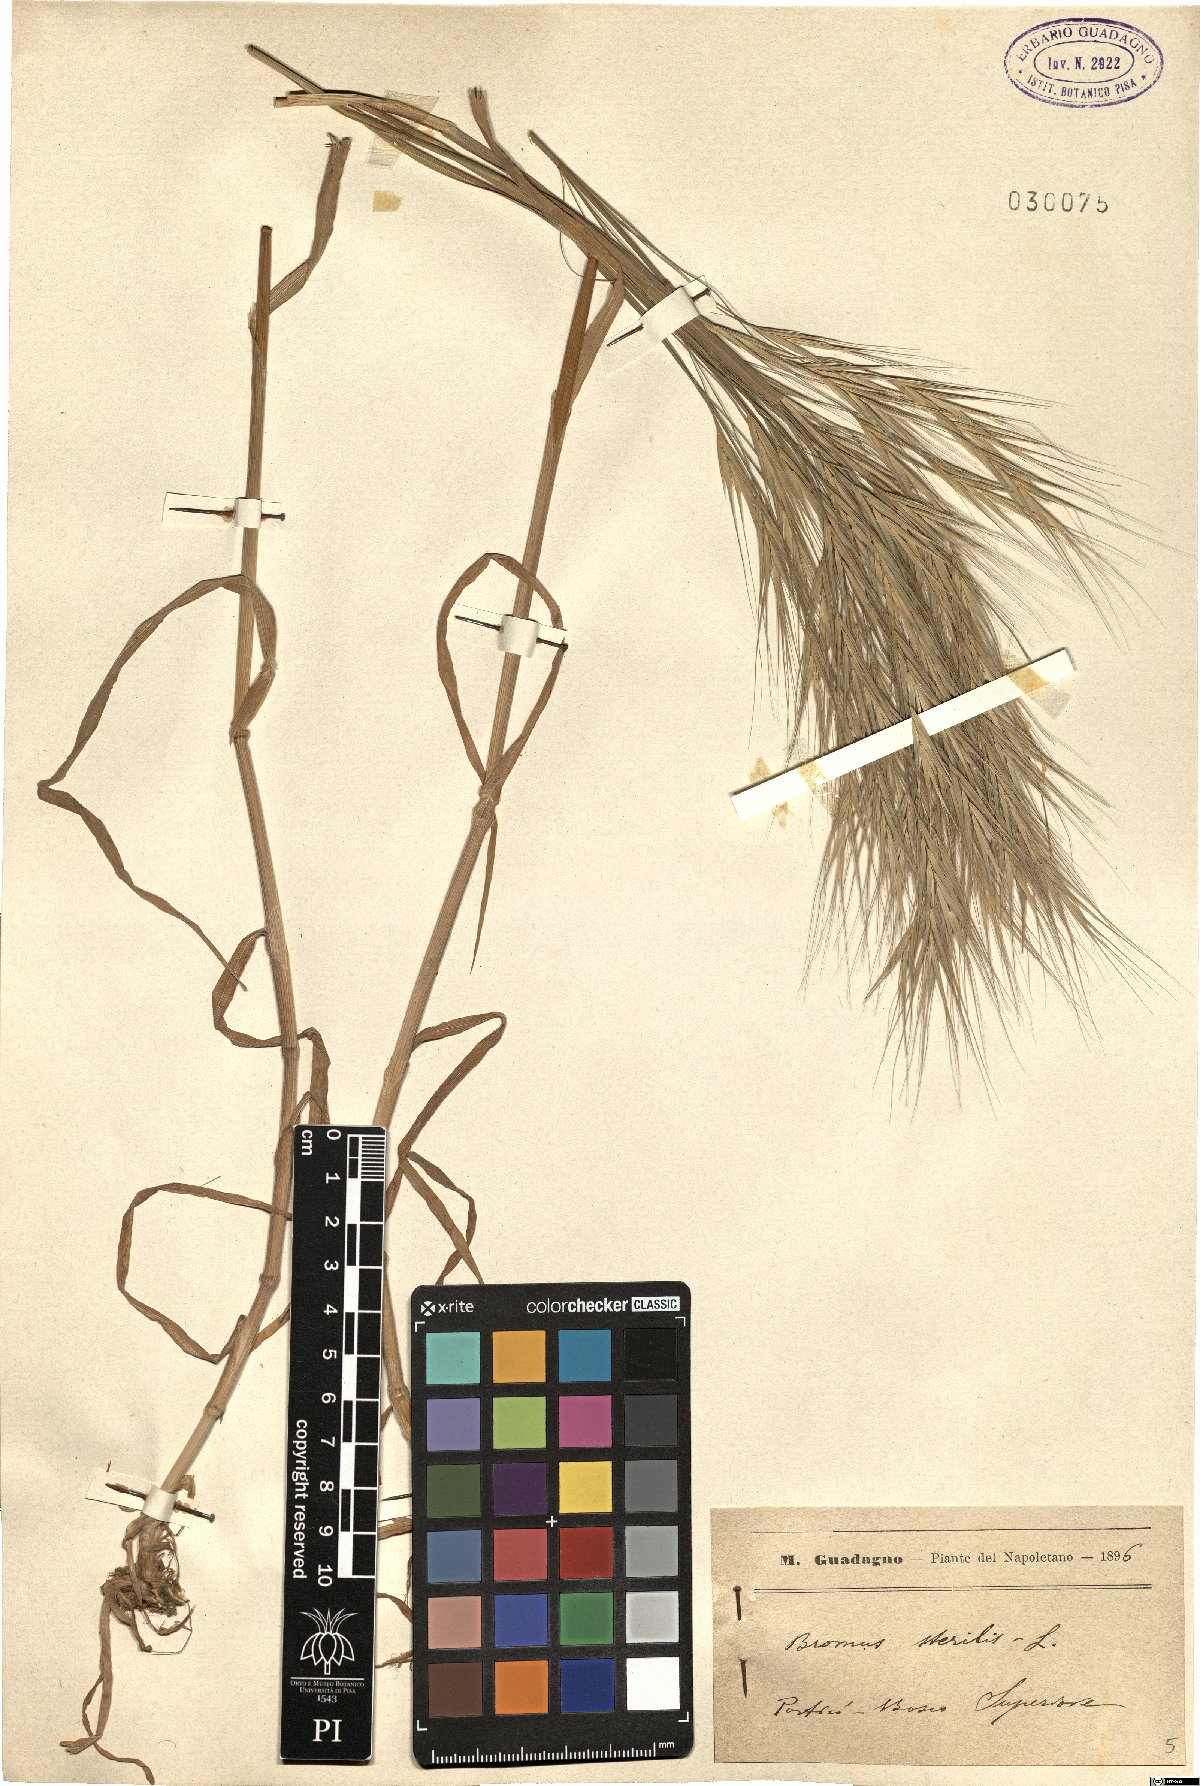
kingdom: Plantae
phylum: Tracheophyta
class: Liliopsida
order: Poales
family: Poaceae
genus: Bromus
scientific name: Bromus sterilis
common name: Poverty brome
